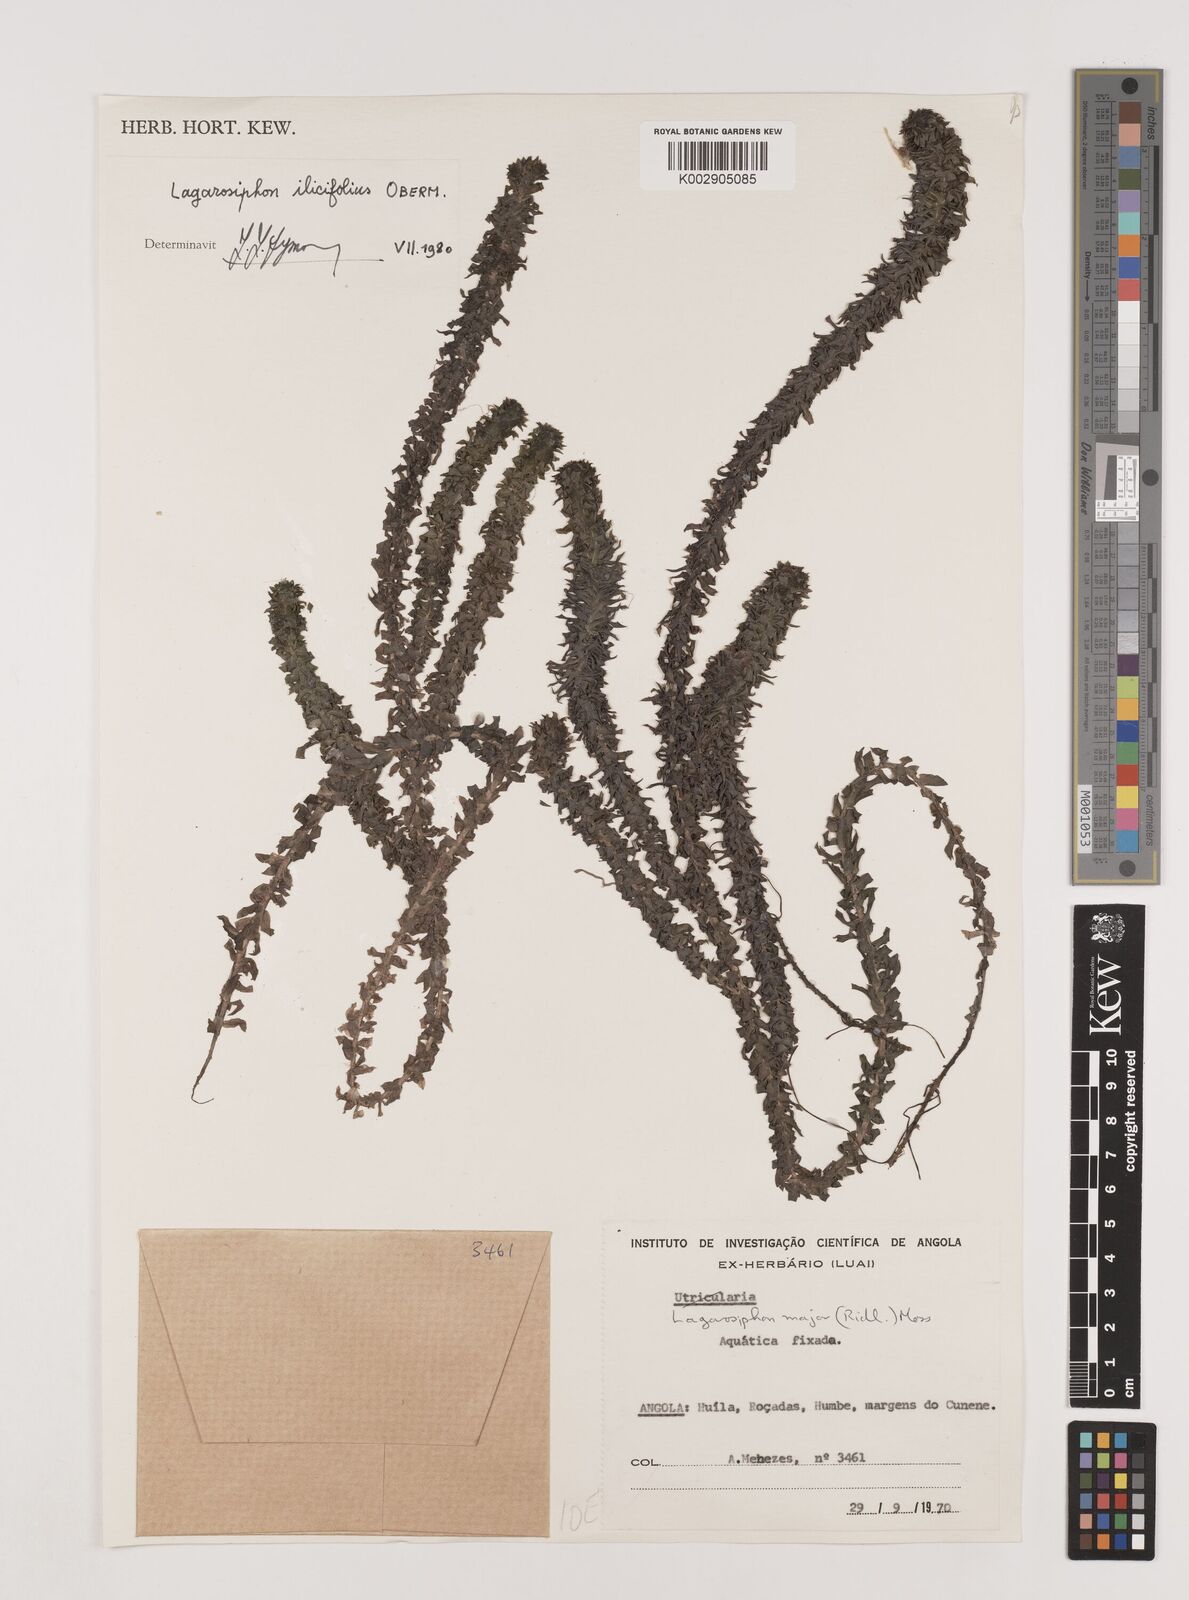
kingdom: Plantae
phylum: Tracheophyta
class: Liliopsida
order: Alismatales
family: Hydrocharitaceae
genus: Lagarosiphon
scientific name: Lagarosiphon ilicifolius
